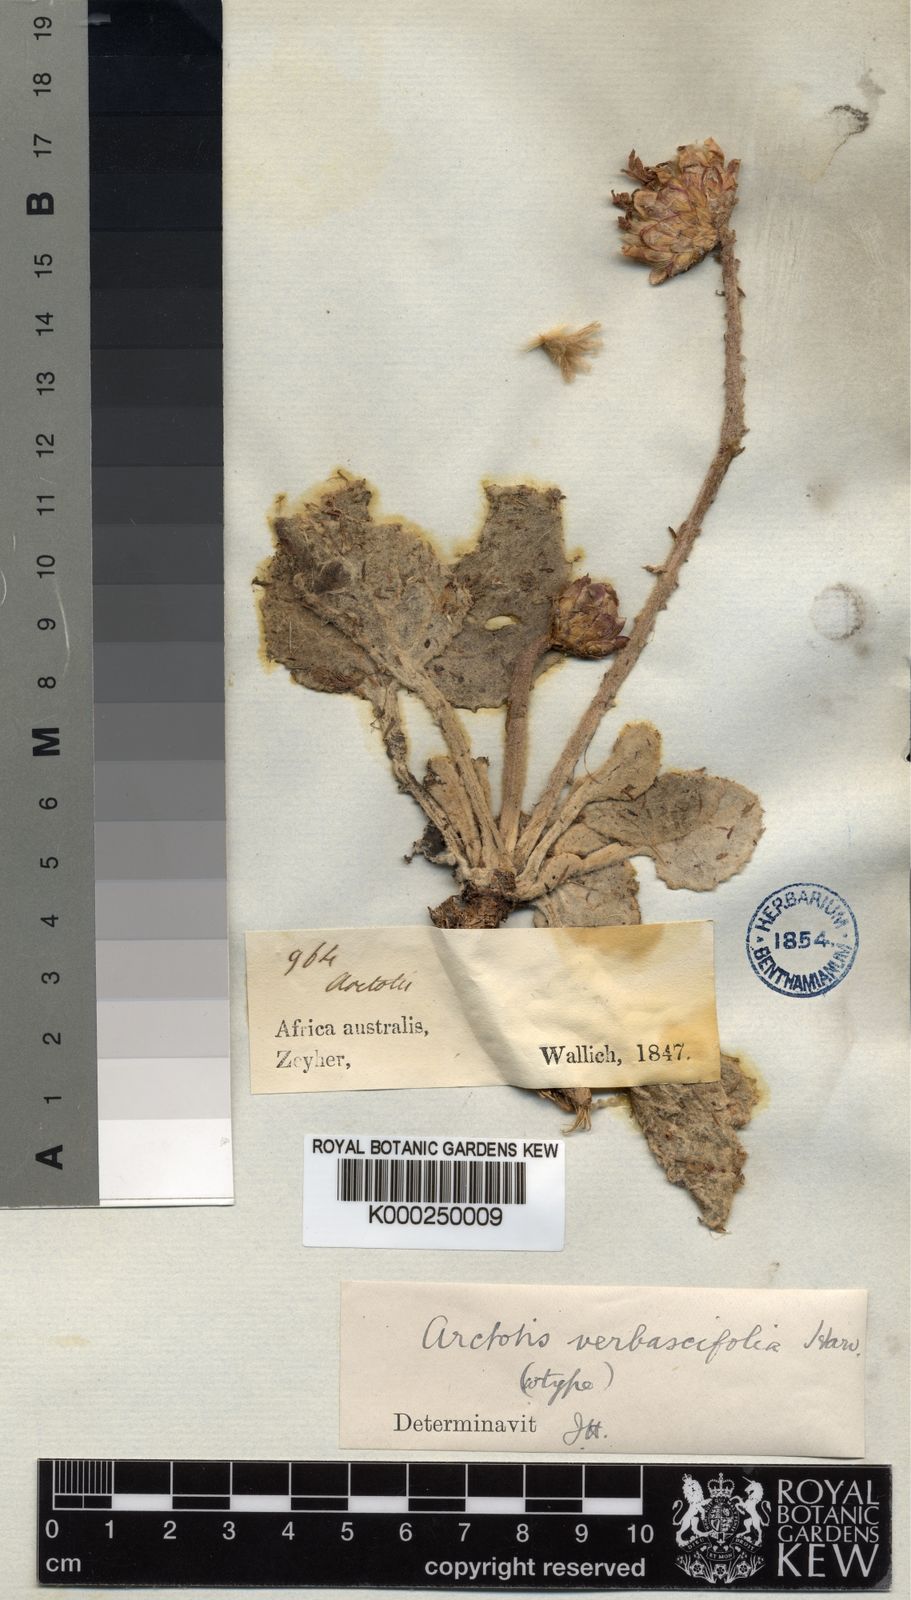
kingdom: Plantae
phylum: Tracheophyta
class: Magnoliopsida
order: Asterales
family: Asteraceae
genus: Arctotis
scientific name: Arctotis verbascifolia
